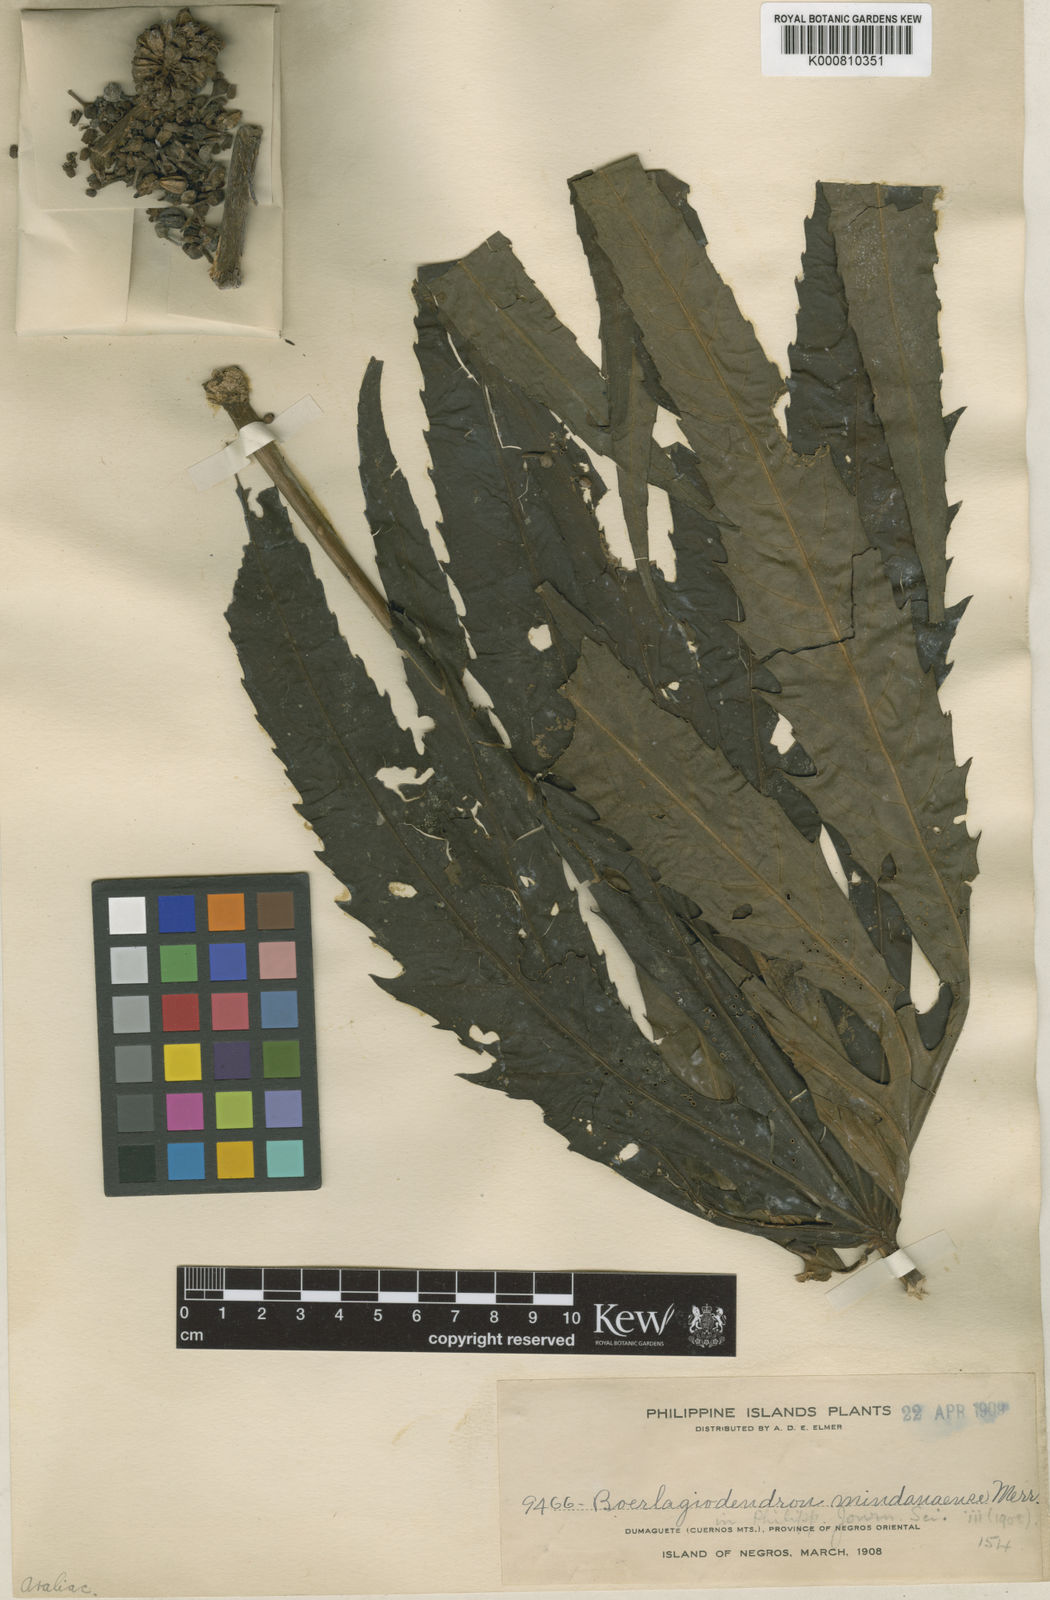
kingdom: Plantae
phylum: Tracheophyta
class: Magnoliopsida
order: Apiales
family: Araliaceae
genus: Osmoxylon
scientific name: Osmoxylon eminens
